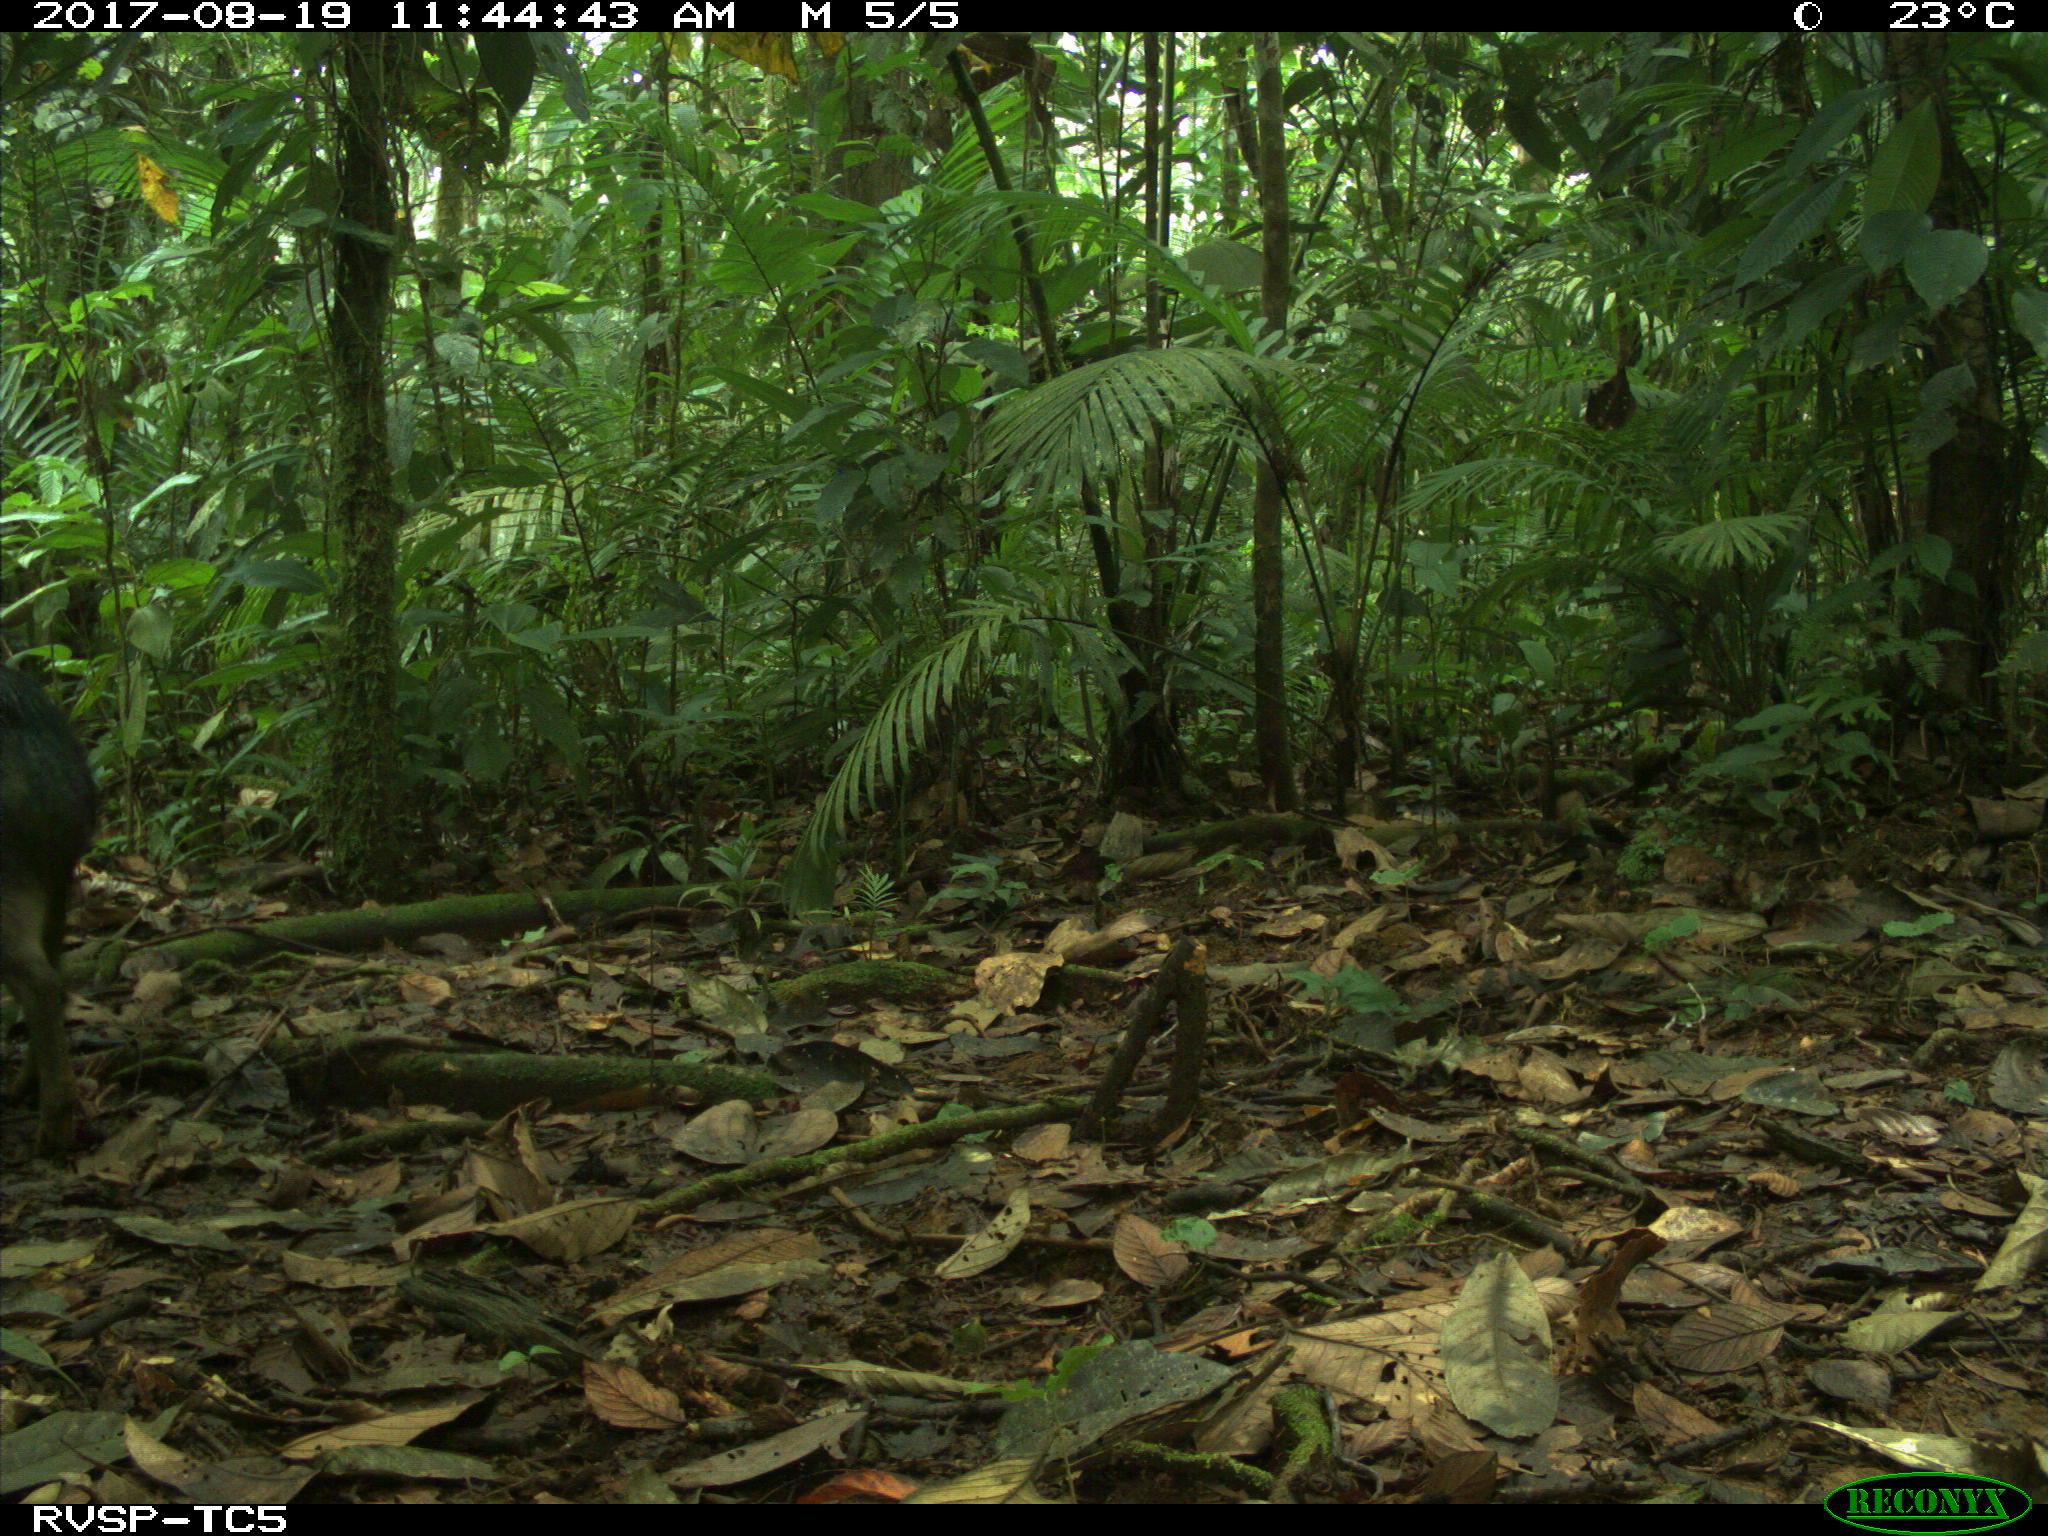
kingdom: Animalia
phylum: Chordata
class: Mammalia
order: Artiodactyla
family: Tayassuidae
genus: Tayassu
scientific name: Tayassu pecari
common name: White-lipped peccary
